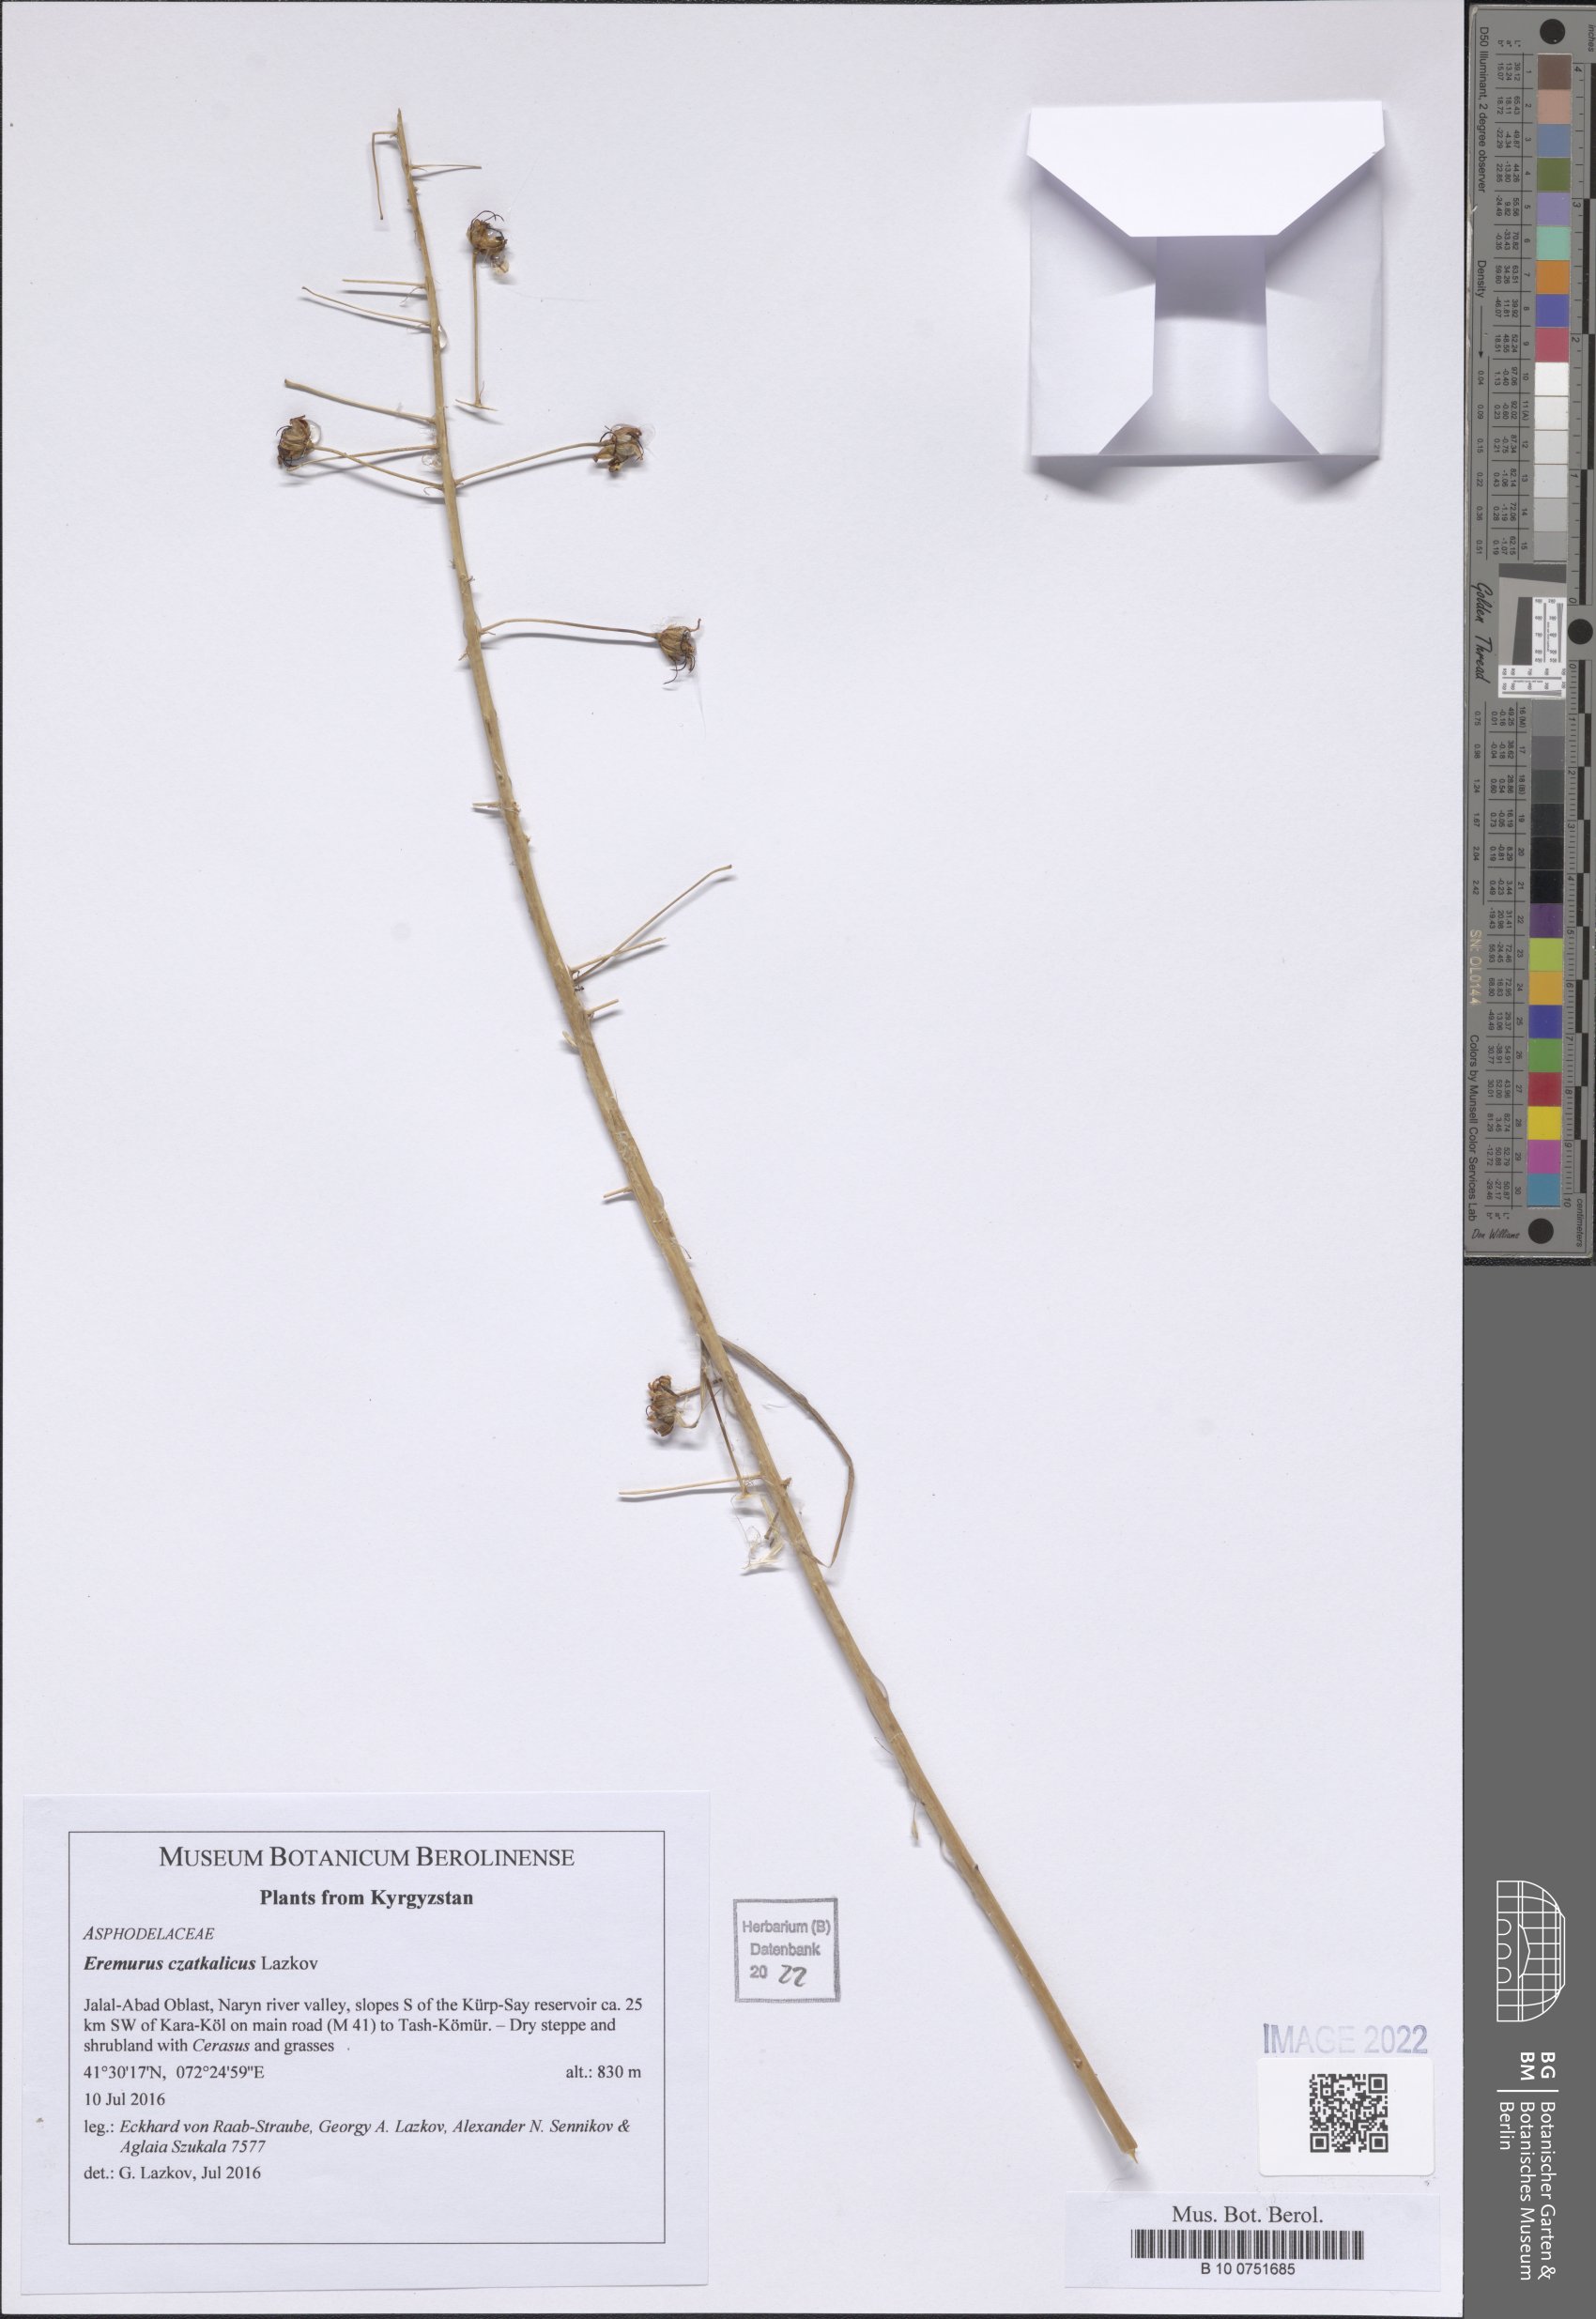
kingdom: Plantae
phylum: Tracheophyta
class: Liliopsida
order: Asparagales
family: Asphodelaceae
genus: Eremurus
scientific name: Eremurus czatkalicus
